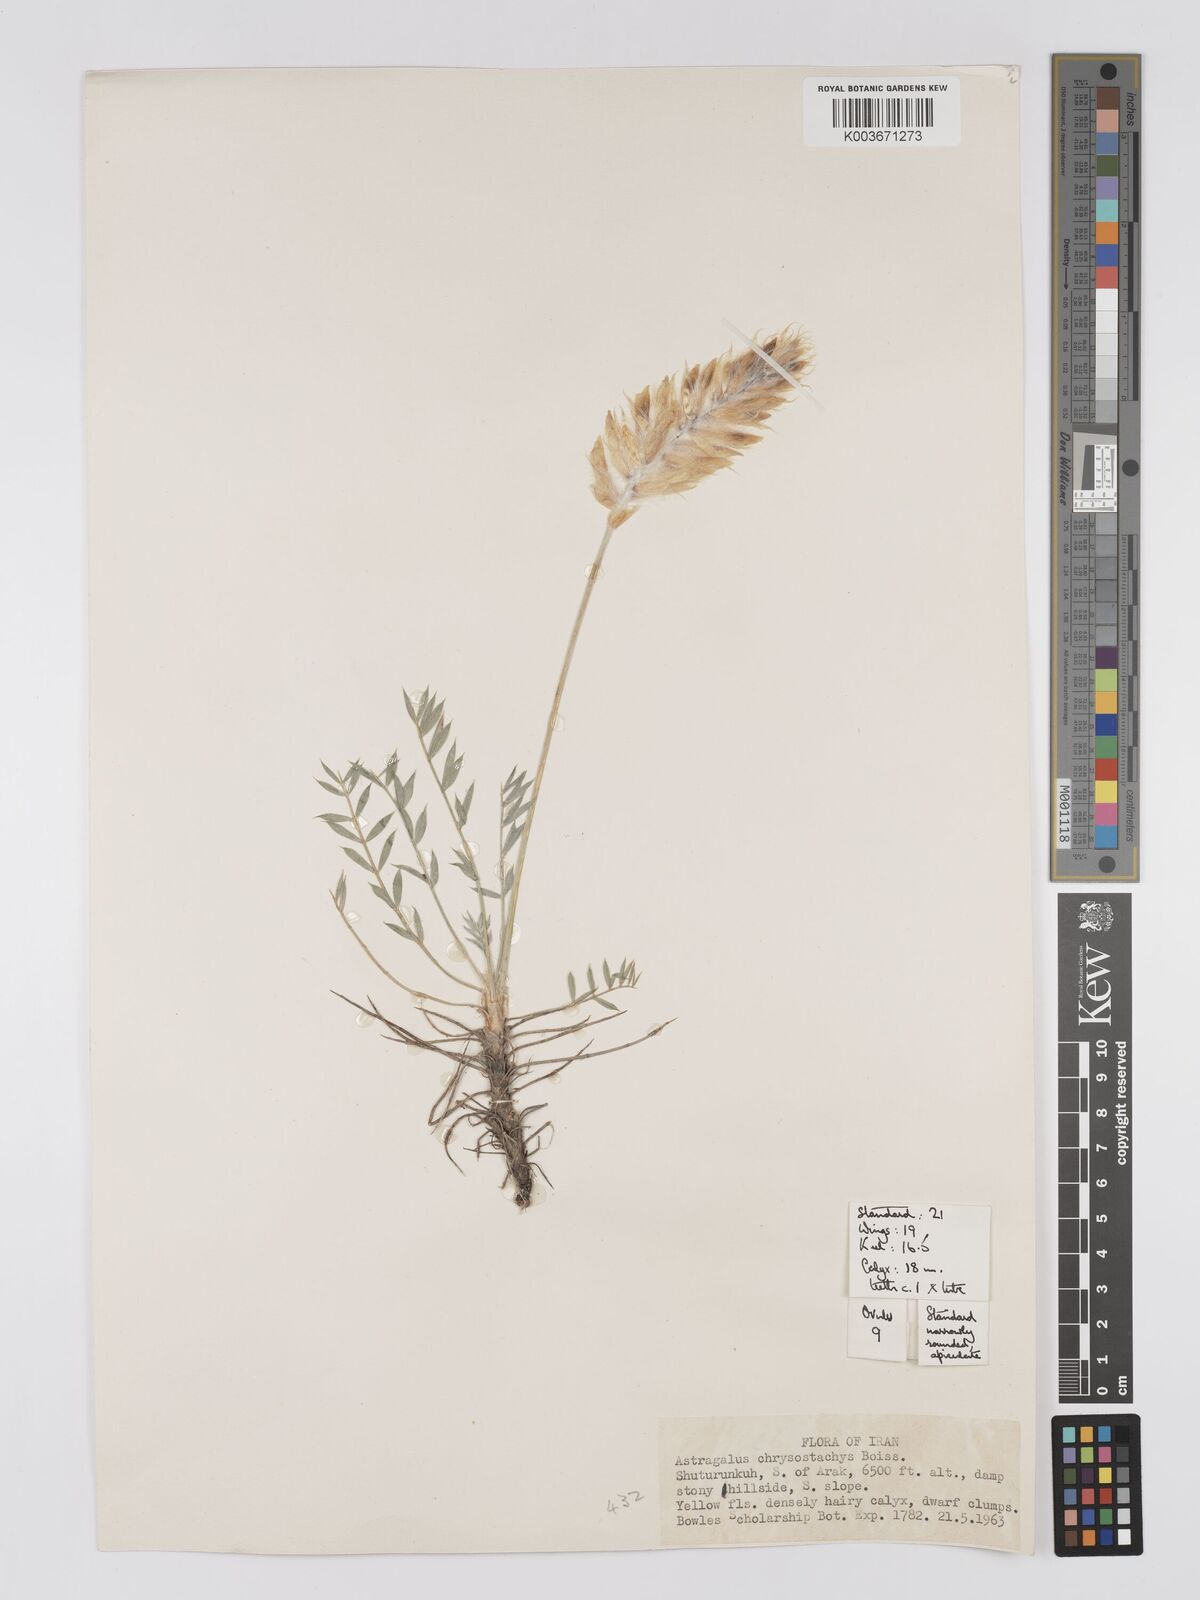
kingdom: Plantae
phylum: Tracheophyta
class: Magnoliopsida
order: Fabales
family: Fabaceae
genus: Astragalus
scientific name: Astragalus chrysostachys
